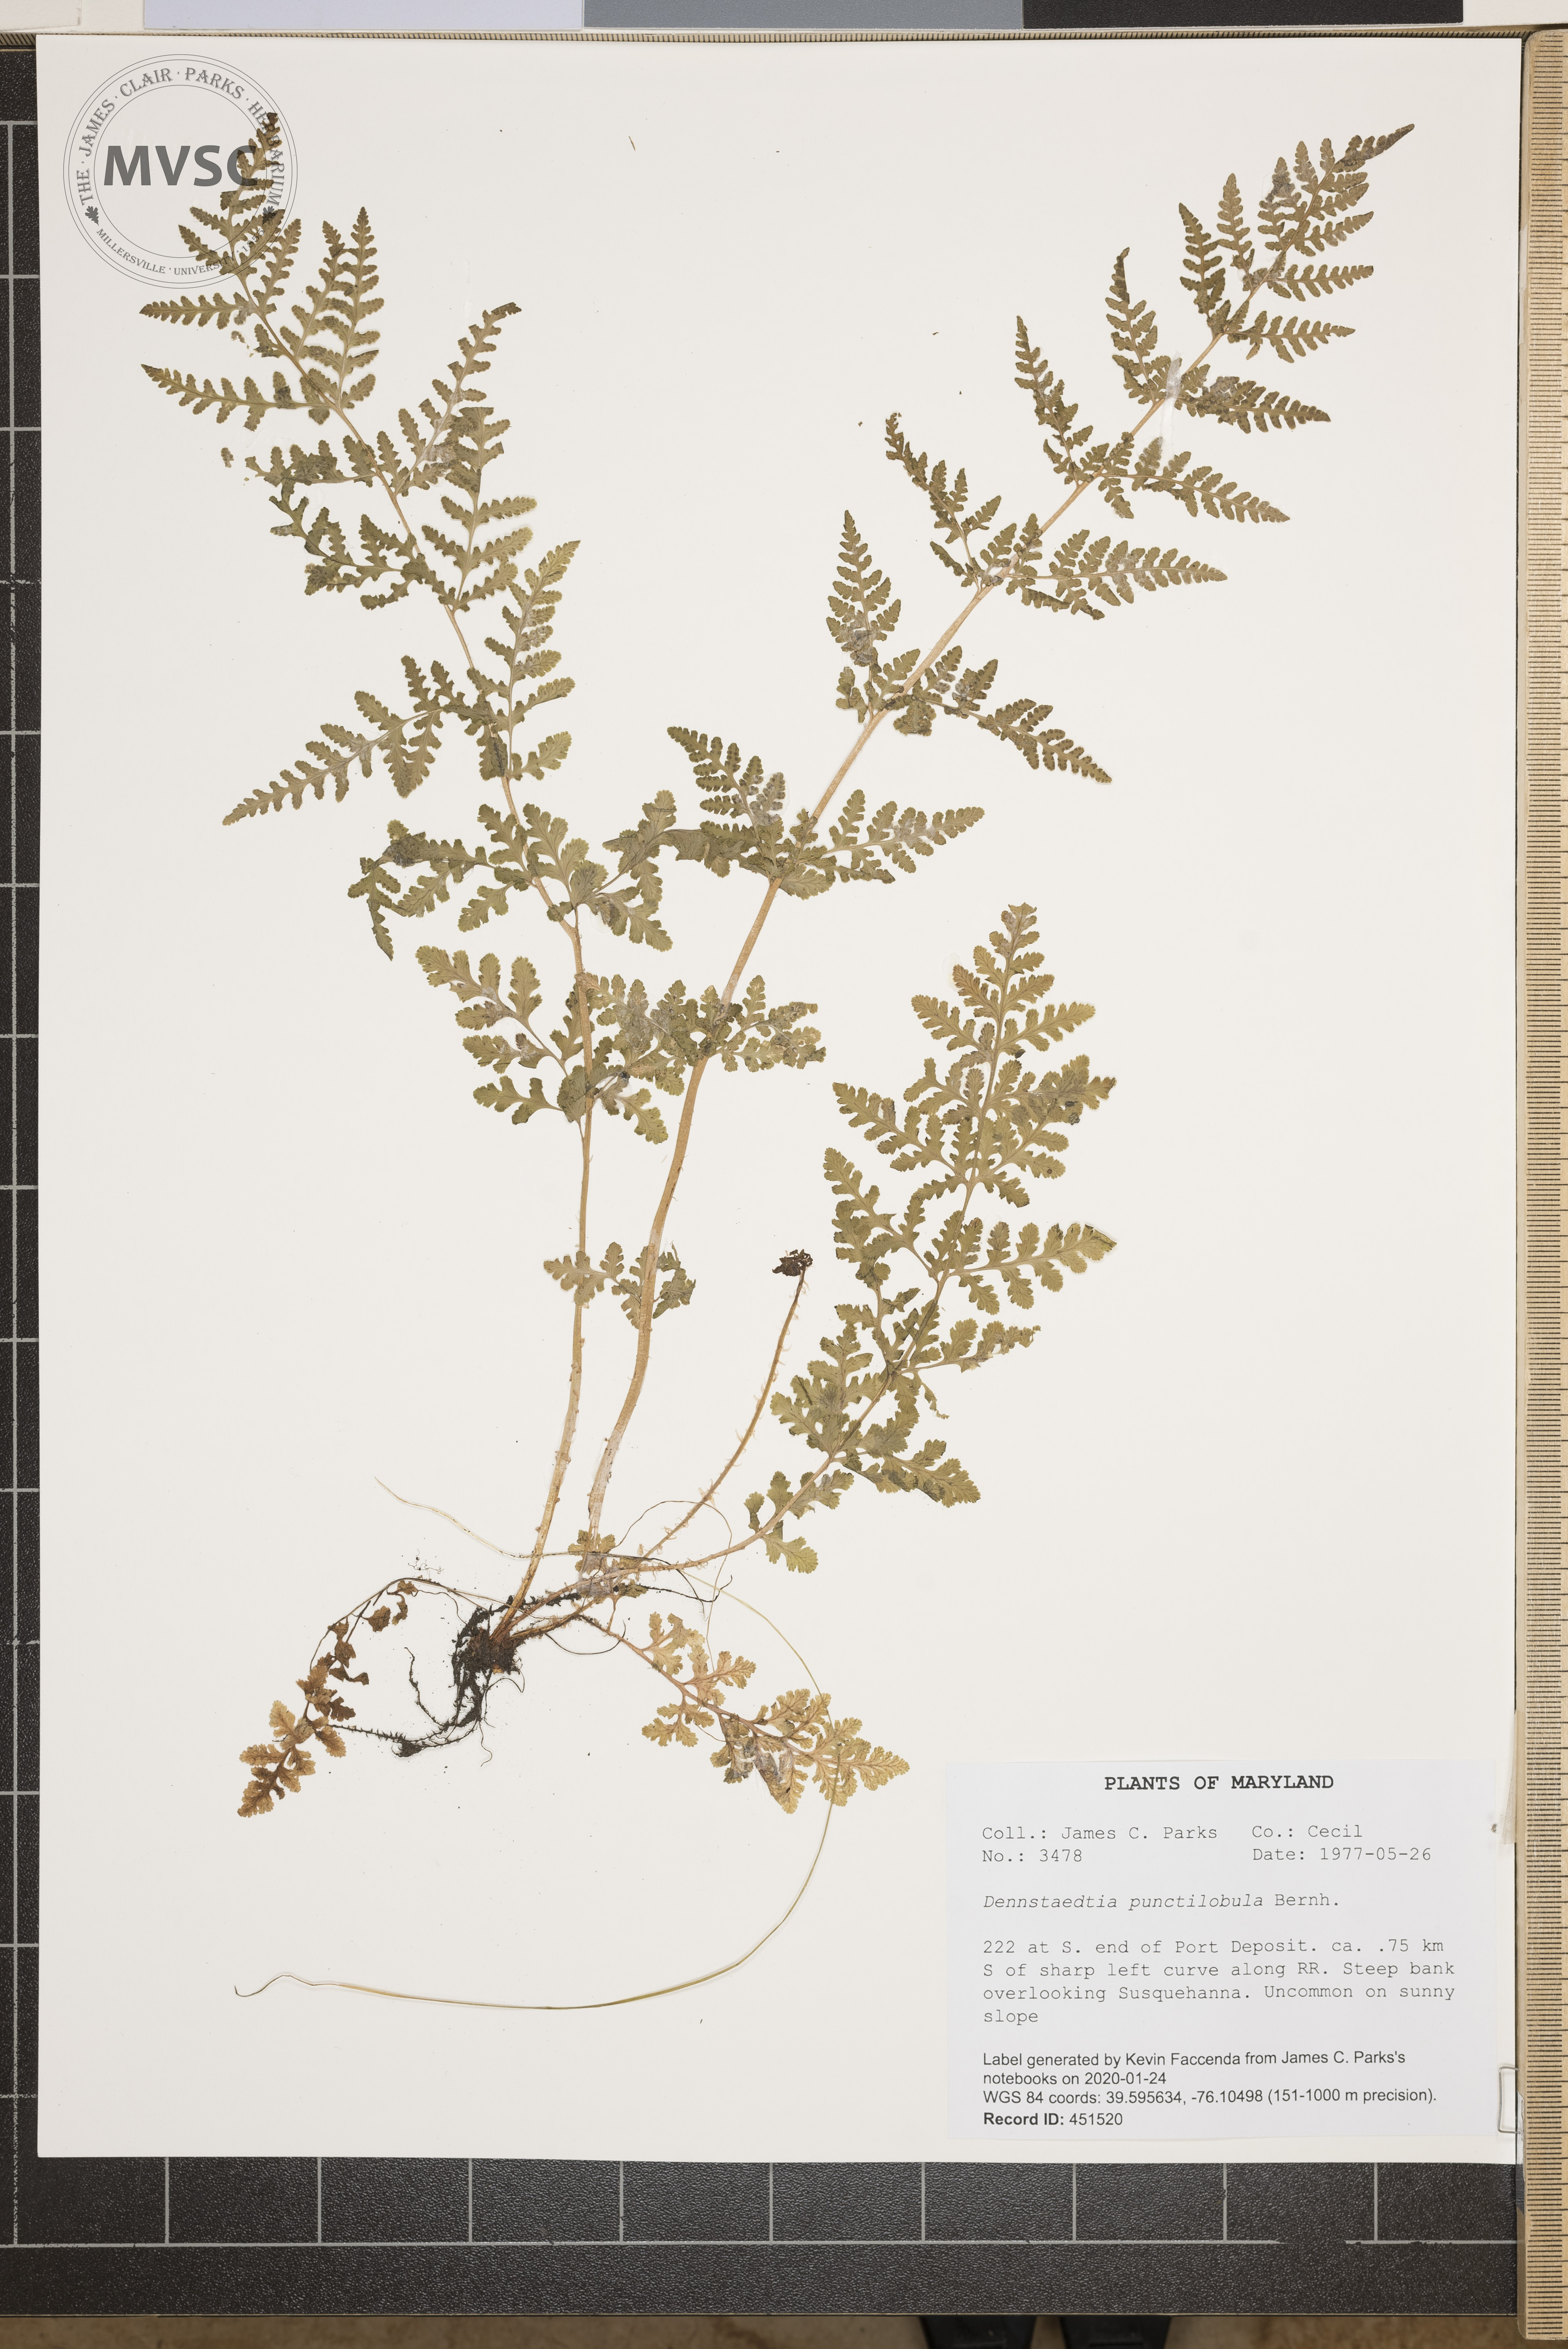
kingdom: Plantae
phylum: Tracheophyta
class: Polypodiopsida
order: Polypodiales
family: Dennstaedtiaceae
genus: Sitobolium
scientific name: Sitobolium punctilobum
